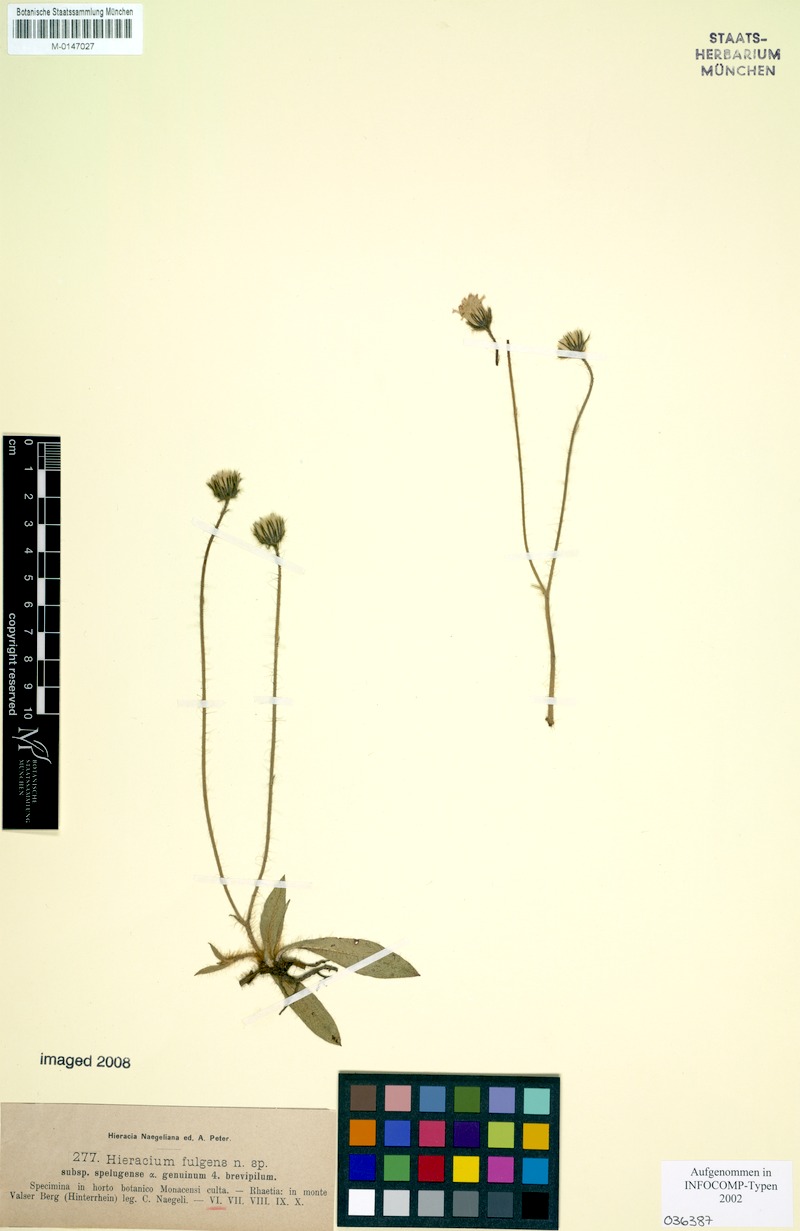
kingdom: Plantae
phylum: Tracheophyta
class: Magnoliopsida
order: Asterales
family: Asteraceae
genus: Pilosella
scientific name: Pilosella notha
